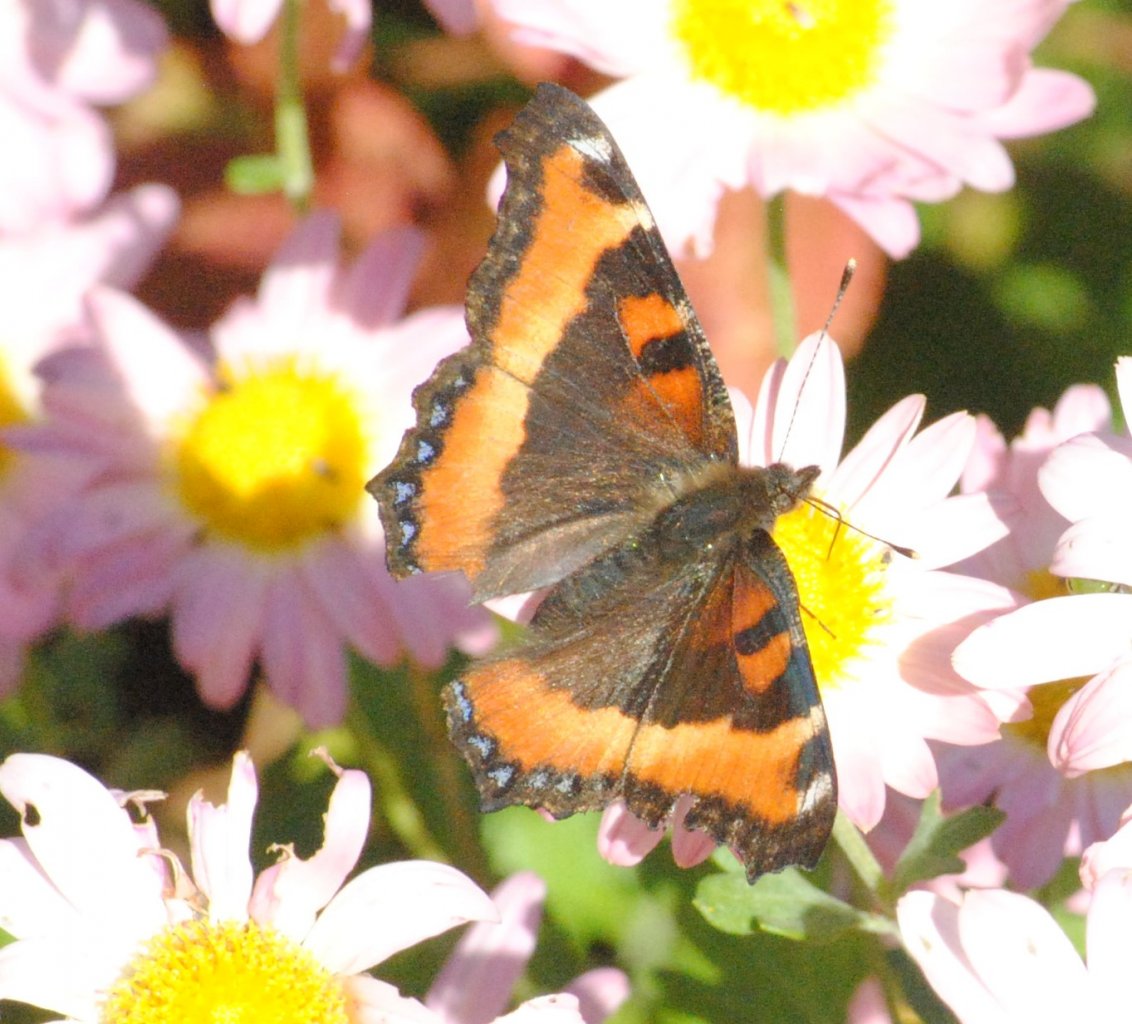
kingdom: Animalia
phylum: Arthropoda
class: Insecta
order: Lepidoptera
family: Nymphalidae
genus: Aglais
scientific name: Aglais milberti
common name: Milbert's Tortoiseshell
